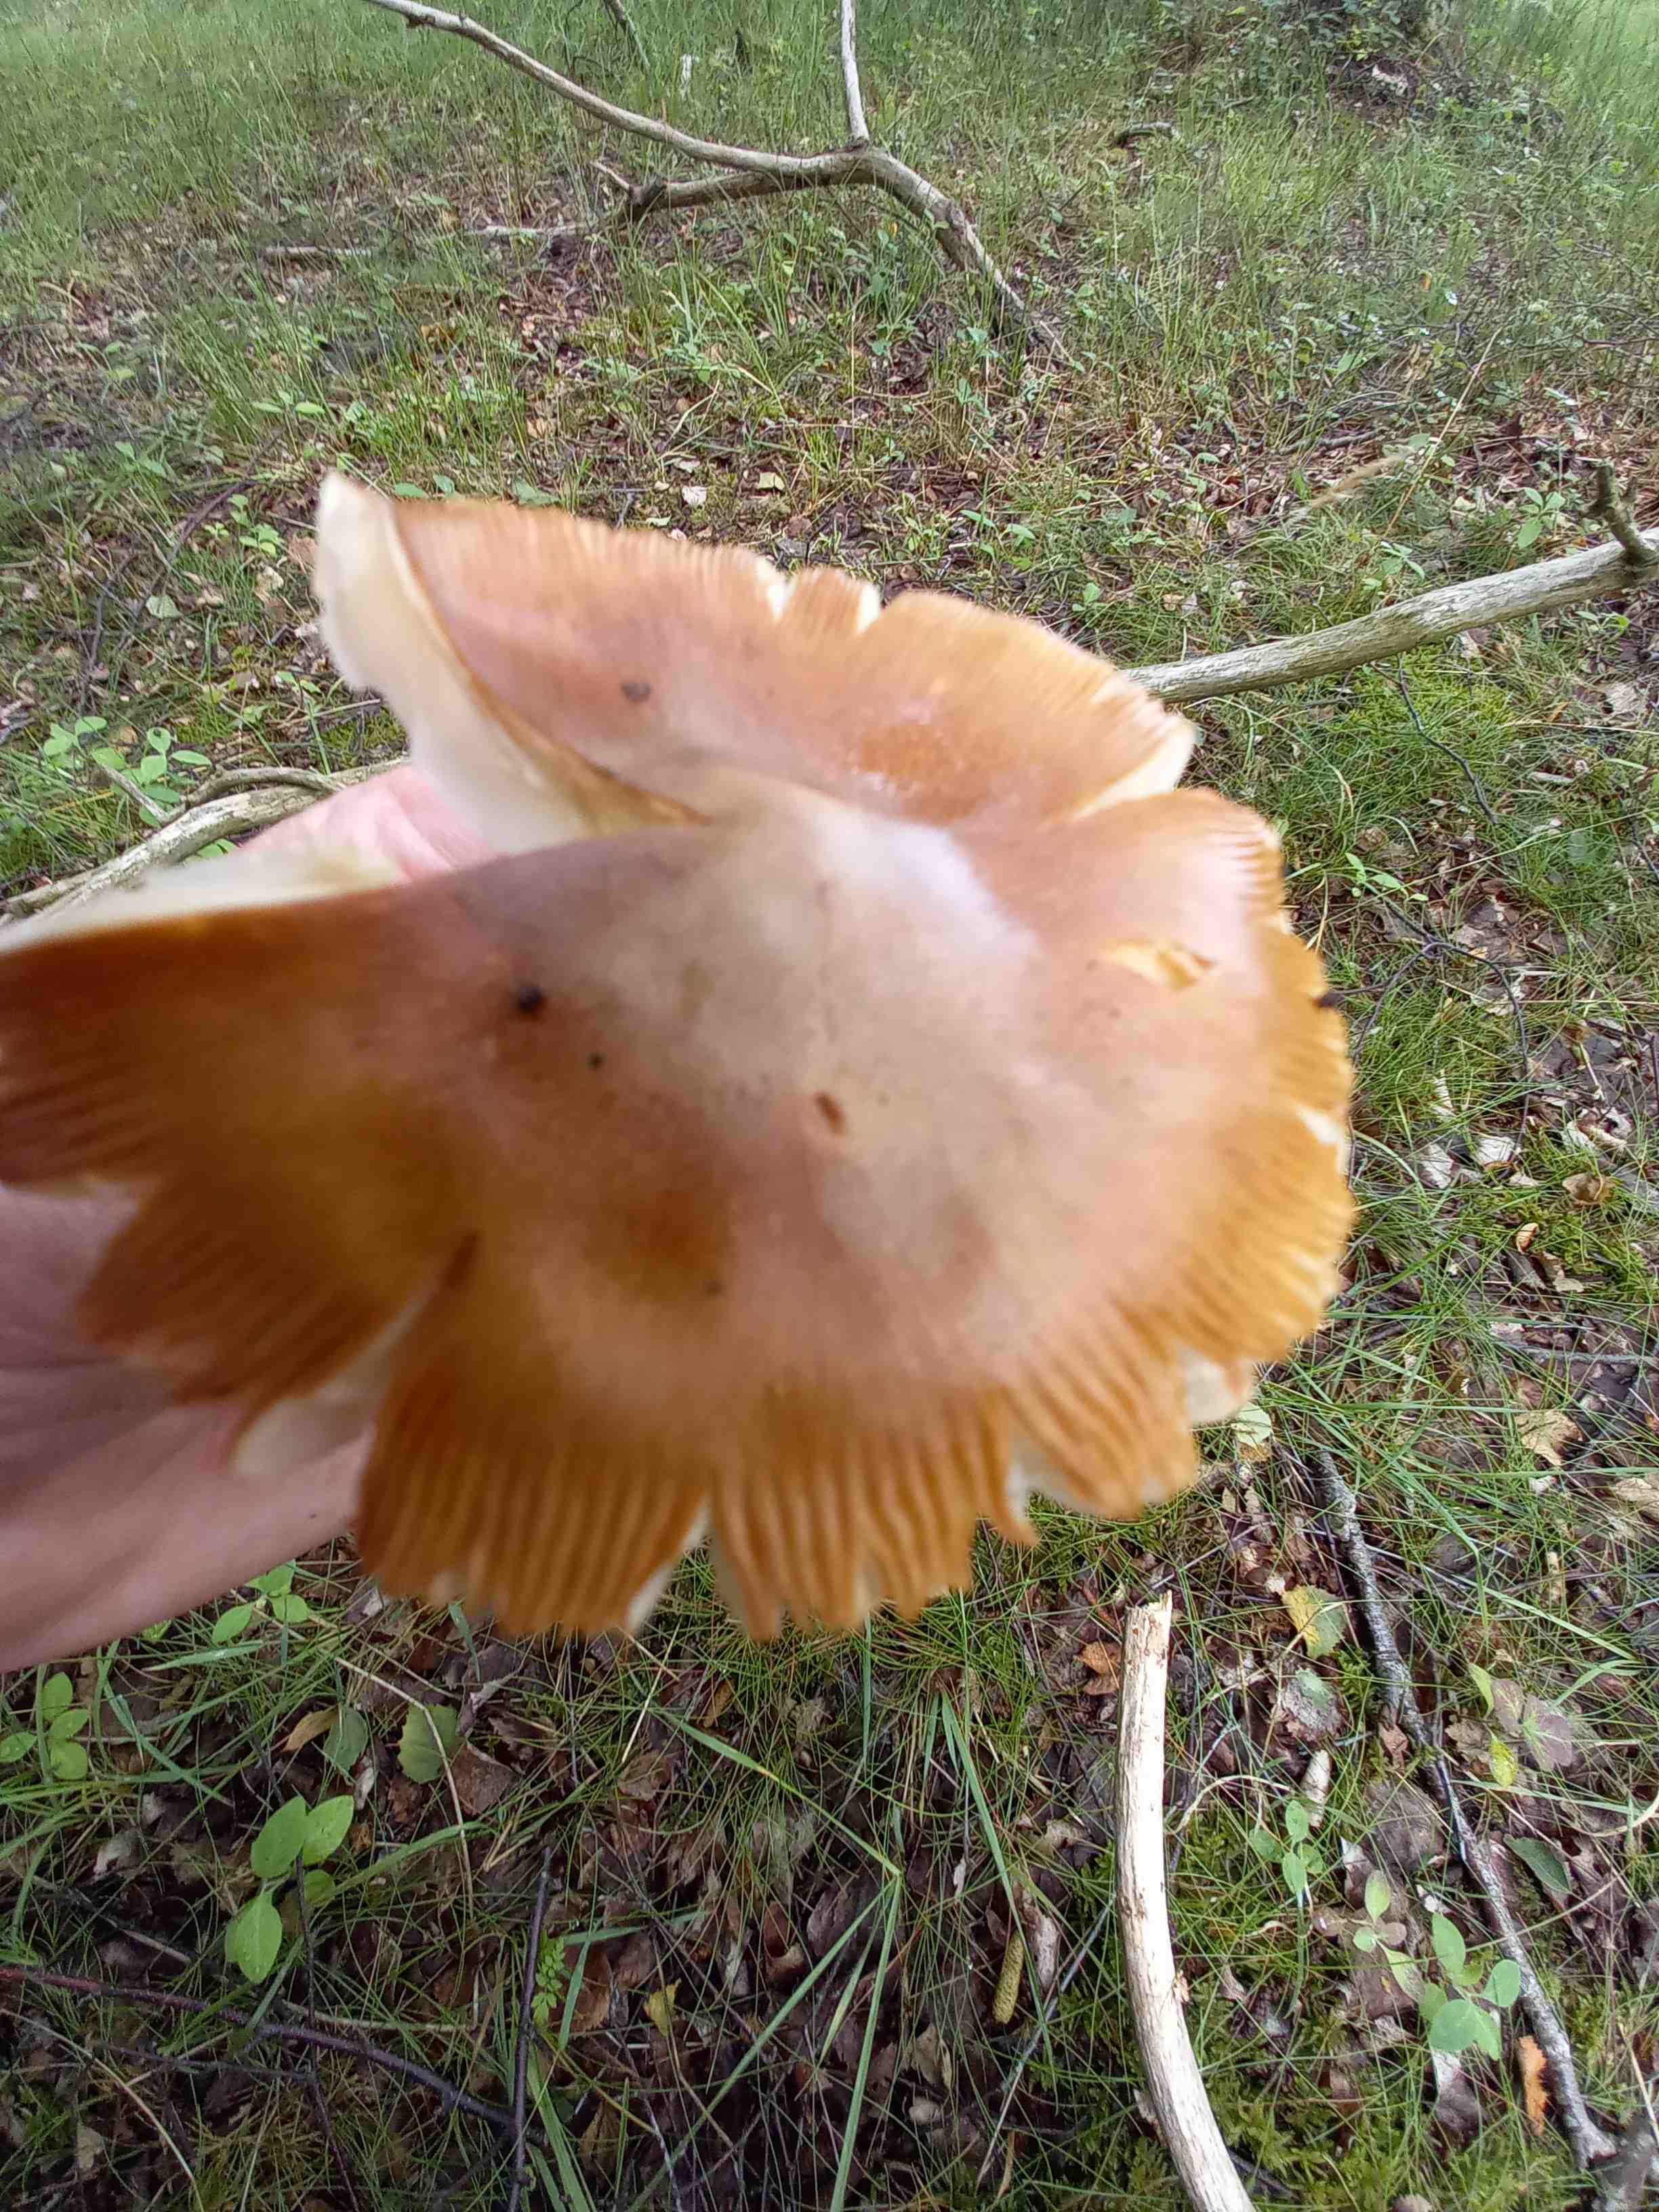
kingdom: Fungi
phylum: Basidiomycota
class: Agaricomycetes
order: Agaricales
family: Amanitaceae
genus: Amanita
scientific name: Amanita fulva
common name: brun kam-fluesvamp
